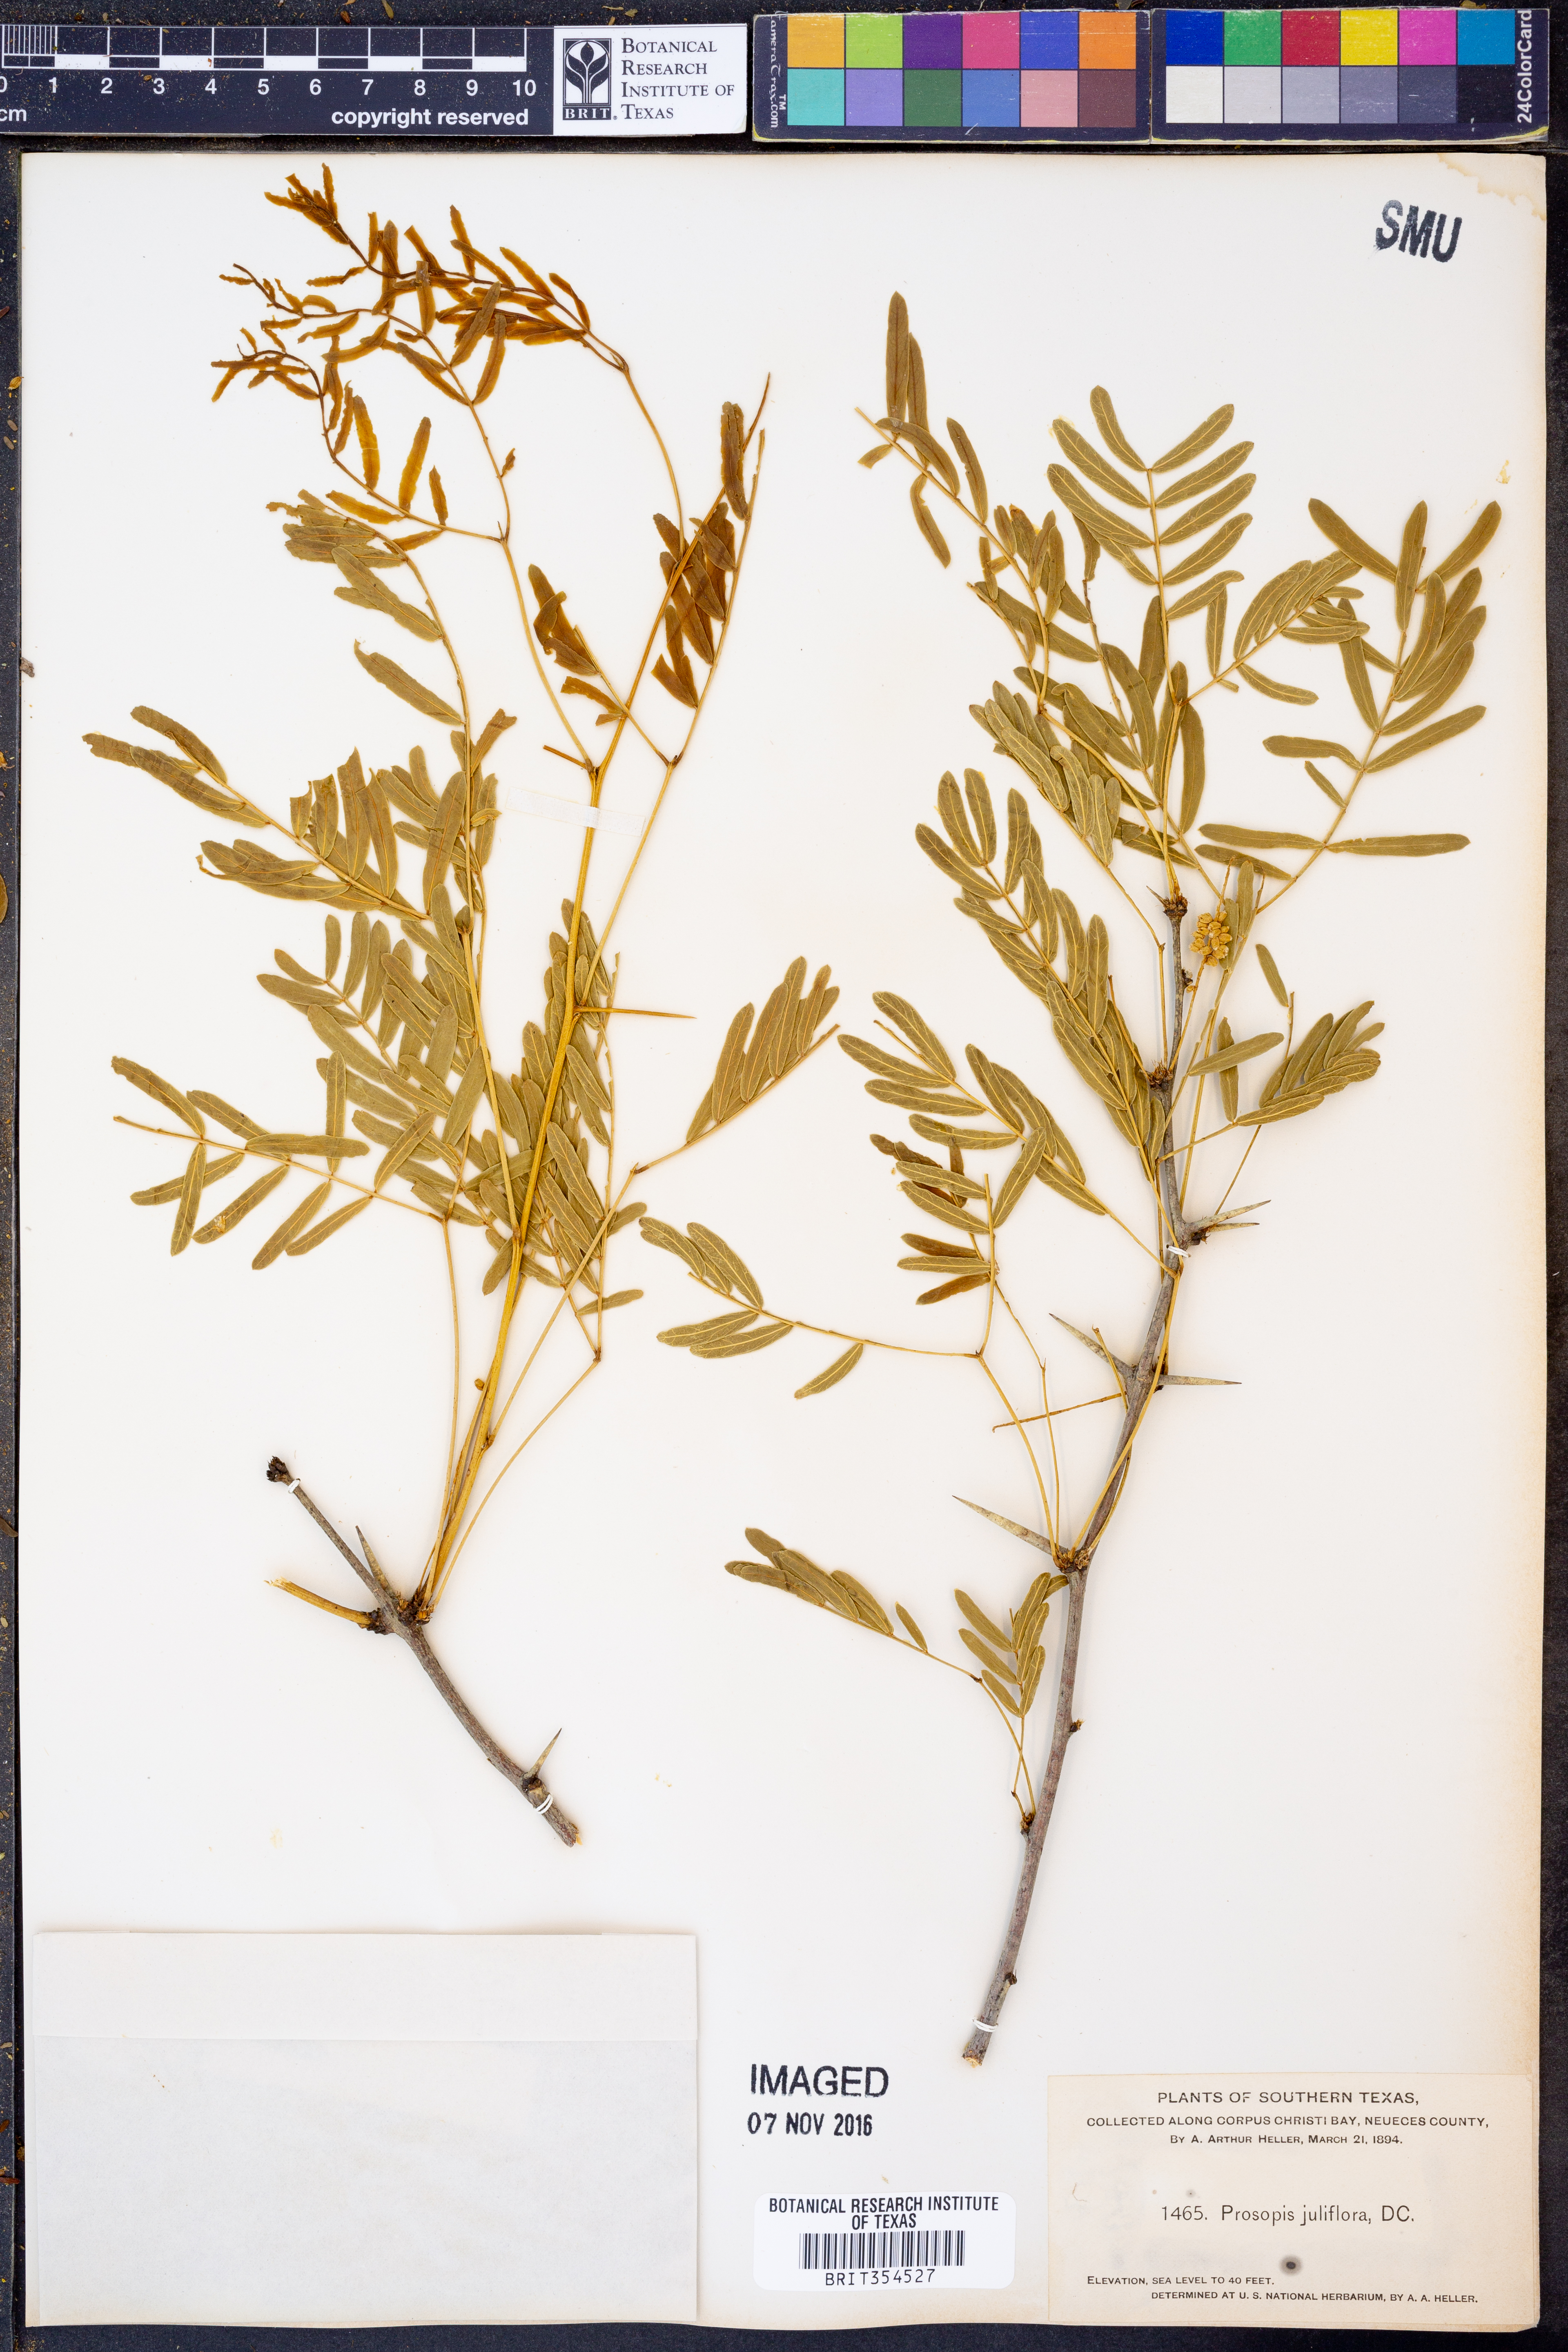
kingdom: Plantae
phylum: Tracheophyta
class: Magnoliopsida
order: Fabales
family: Fabaceae
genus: Prosopis
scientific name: Prosopis juliflora
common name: Mesquite
